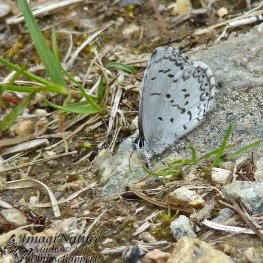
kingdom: Animalia
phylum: Arthropoda
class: Insecta
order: Lepidoptera
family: Lycaenidae
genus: Celastrina
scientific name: Celastrina lucia
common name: Northern Spring Azure
